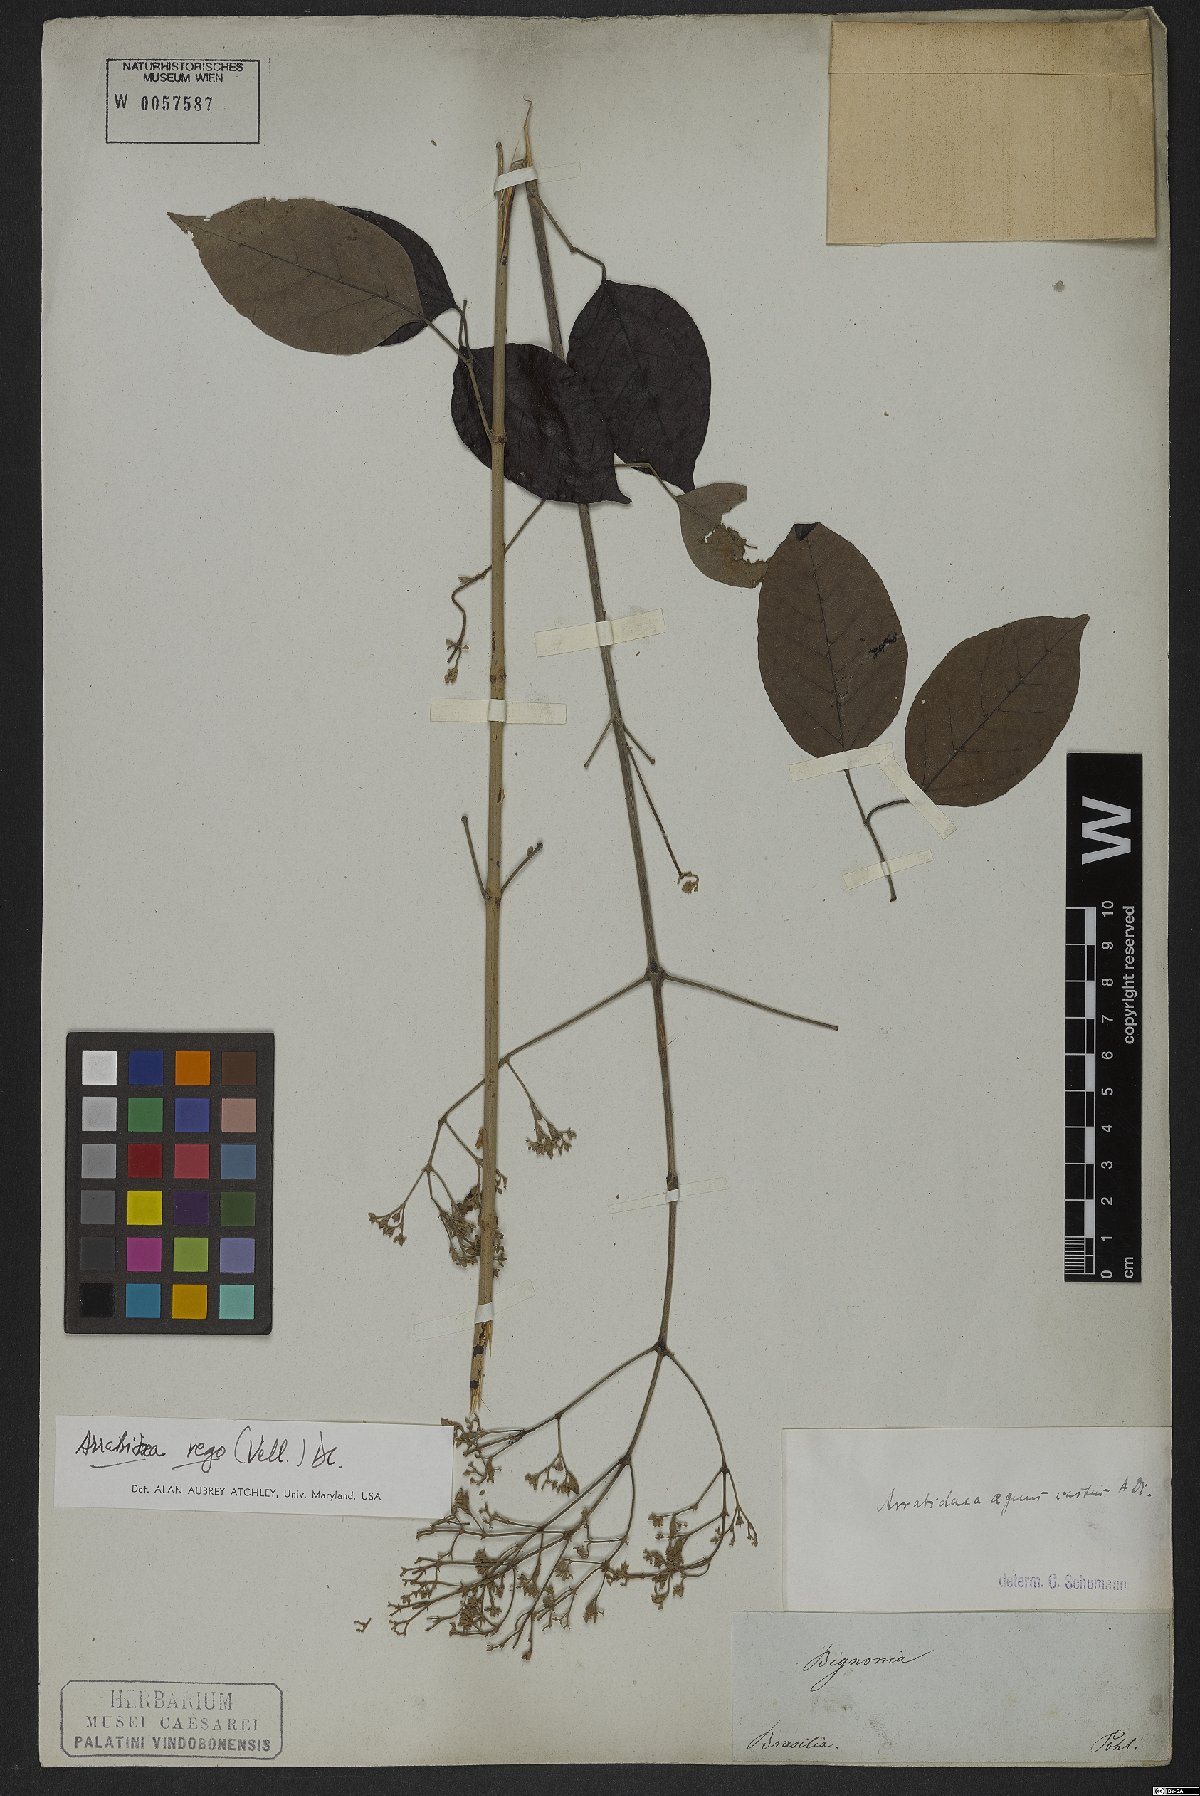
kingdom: Plantae
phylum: Tracheophyta
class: Magnoliopsida
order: Lamiales
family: Bignoniaceae
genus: Fridericia
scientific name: Fridericia rego
